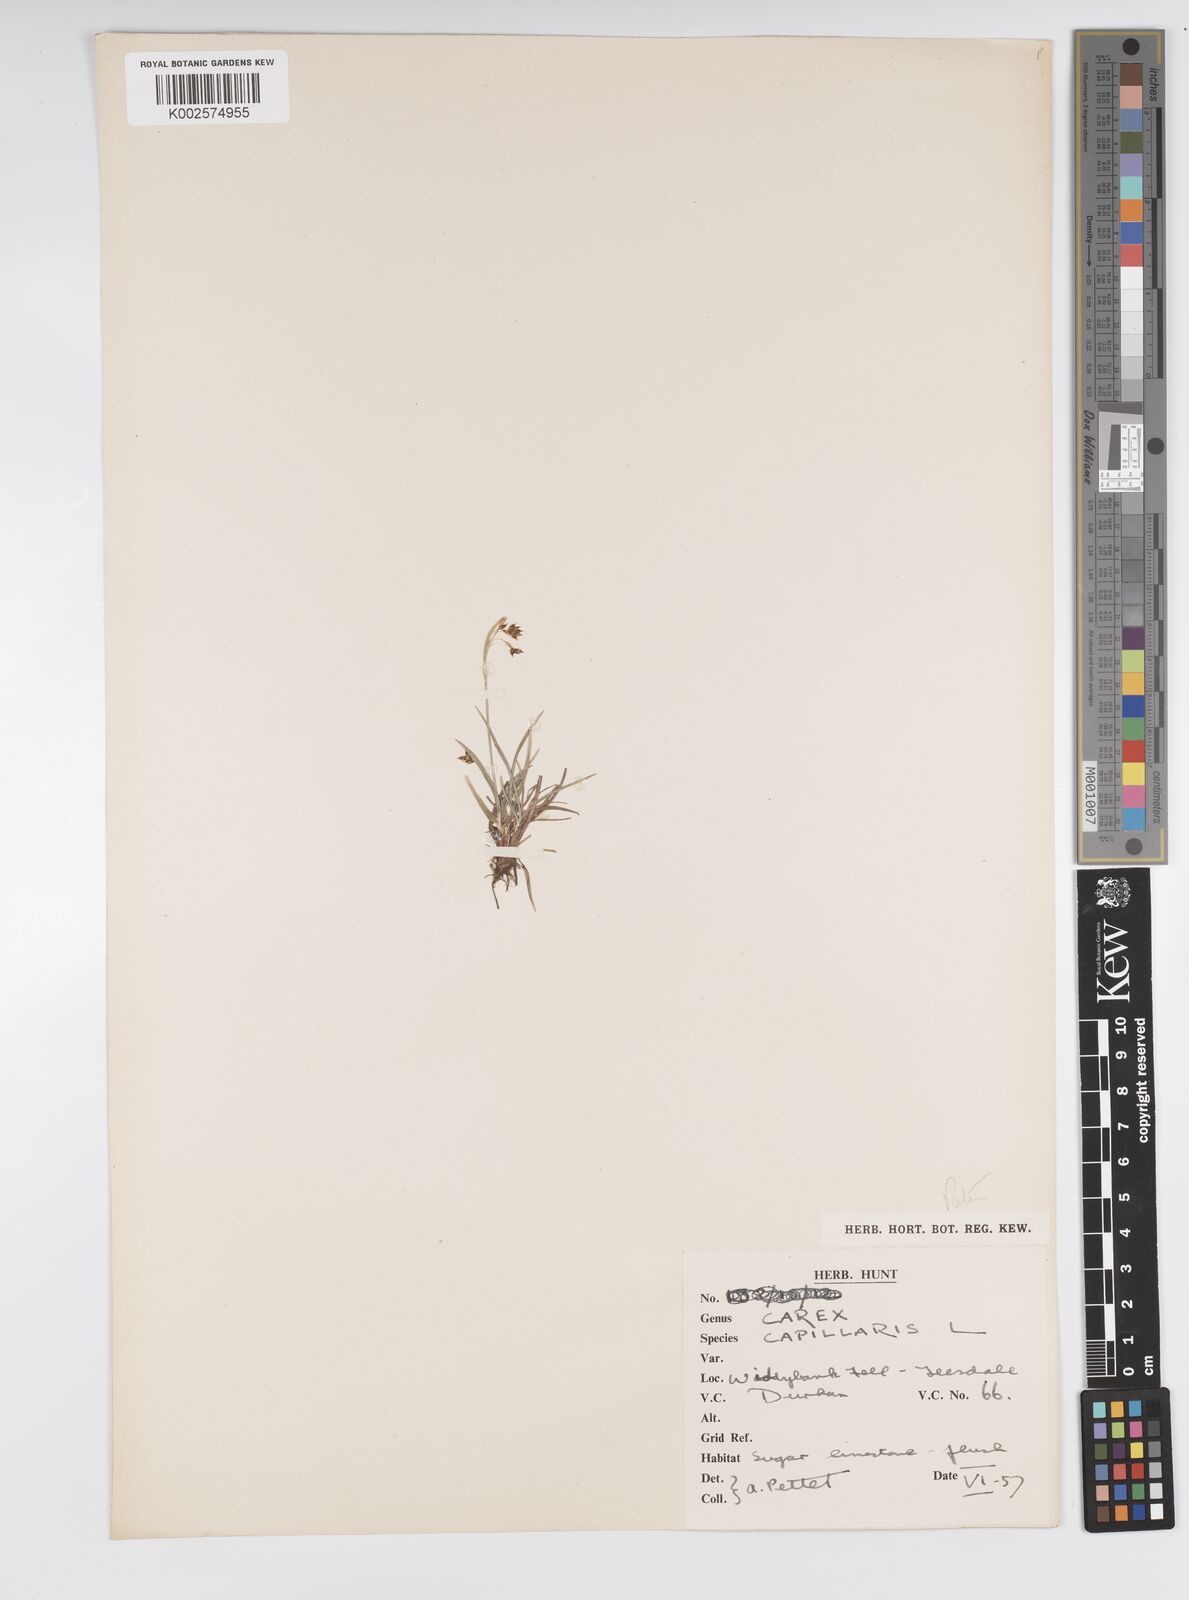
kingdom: Plantae
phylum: Tracheophyta
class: Liliopsida
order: Poales
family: Cyperaceae
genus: Carex
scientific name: Carex capillaris
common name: Hair sedge
